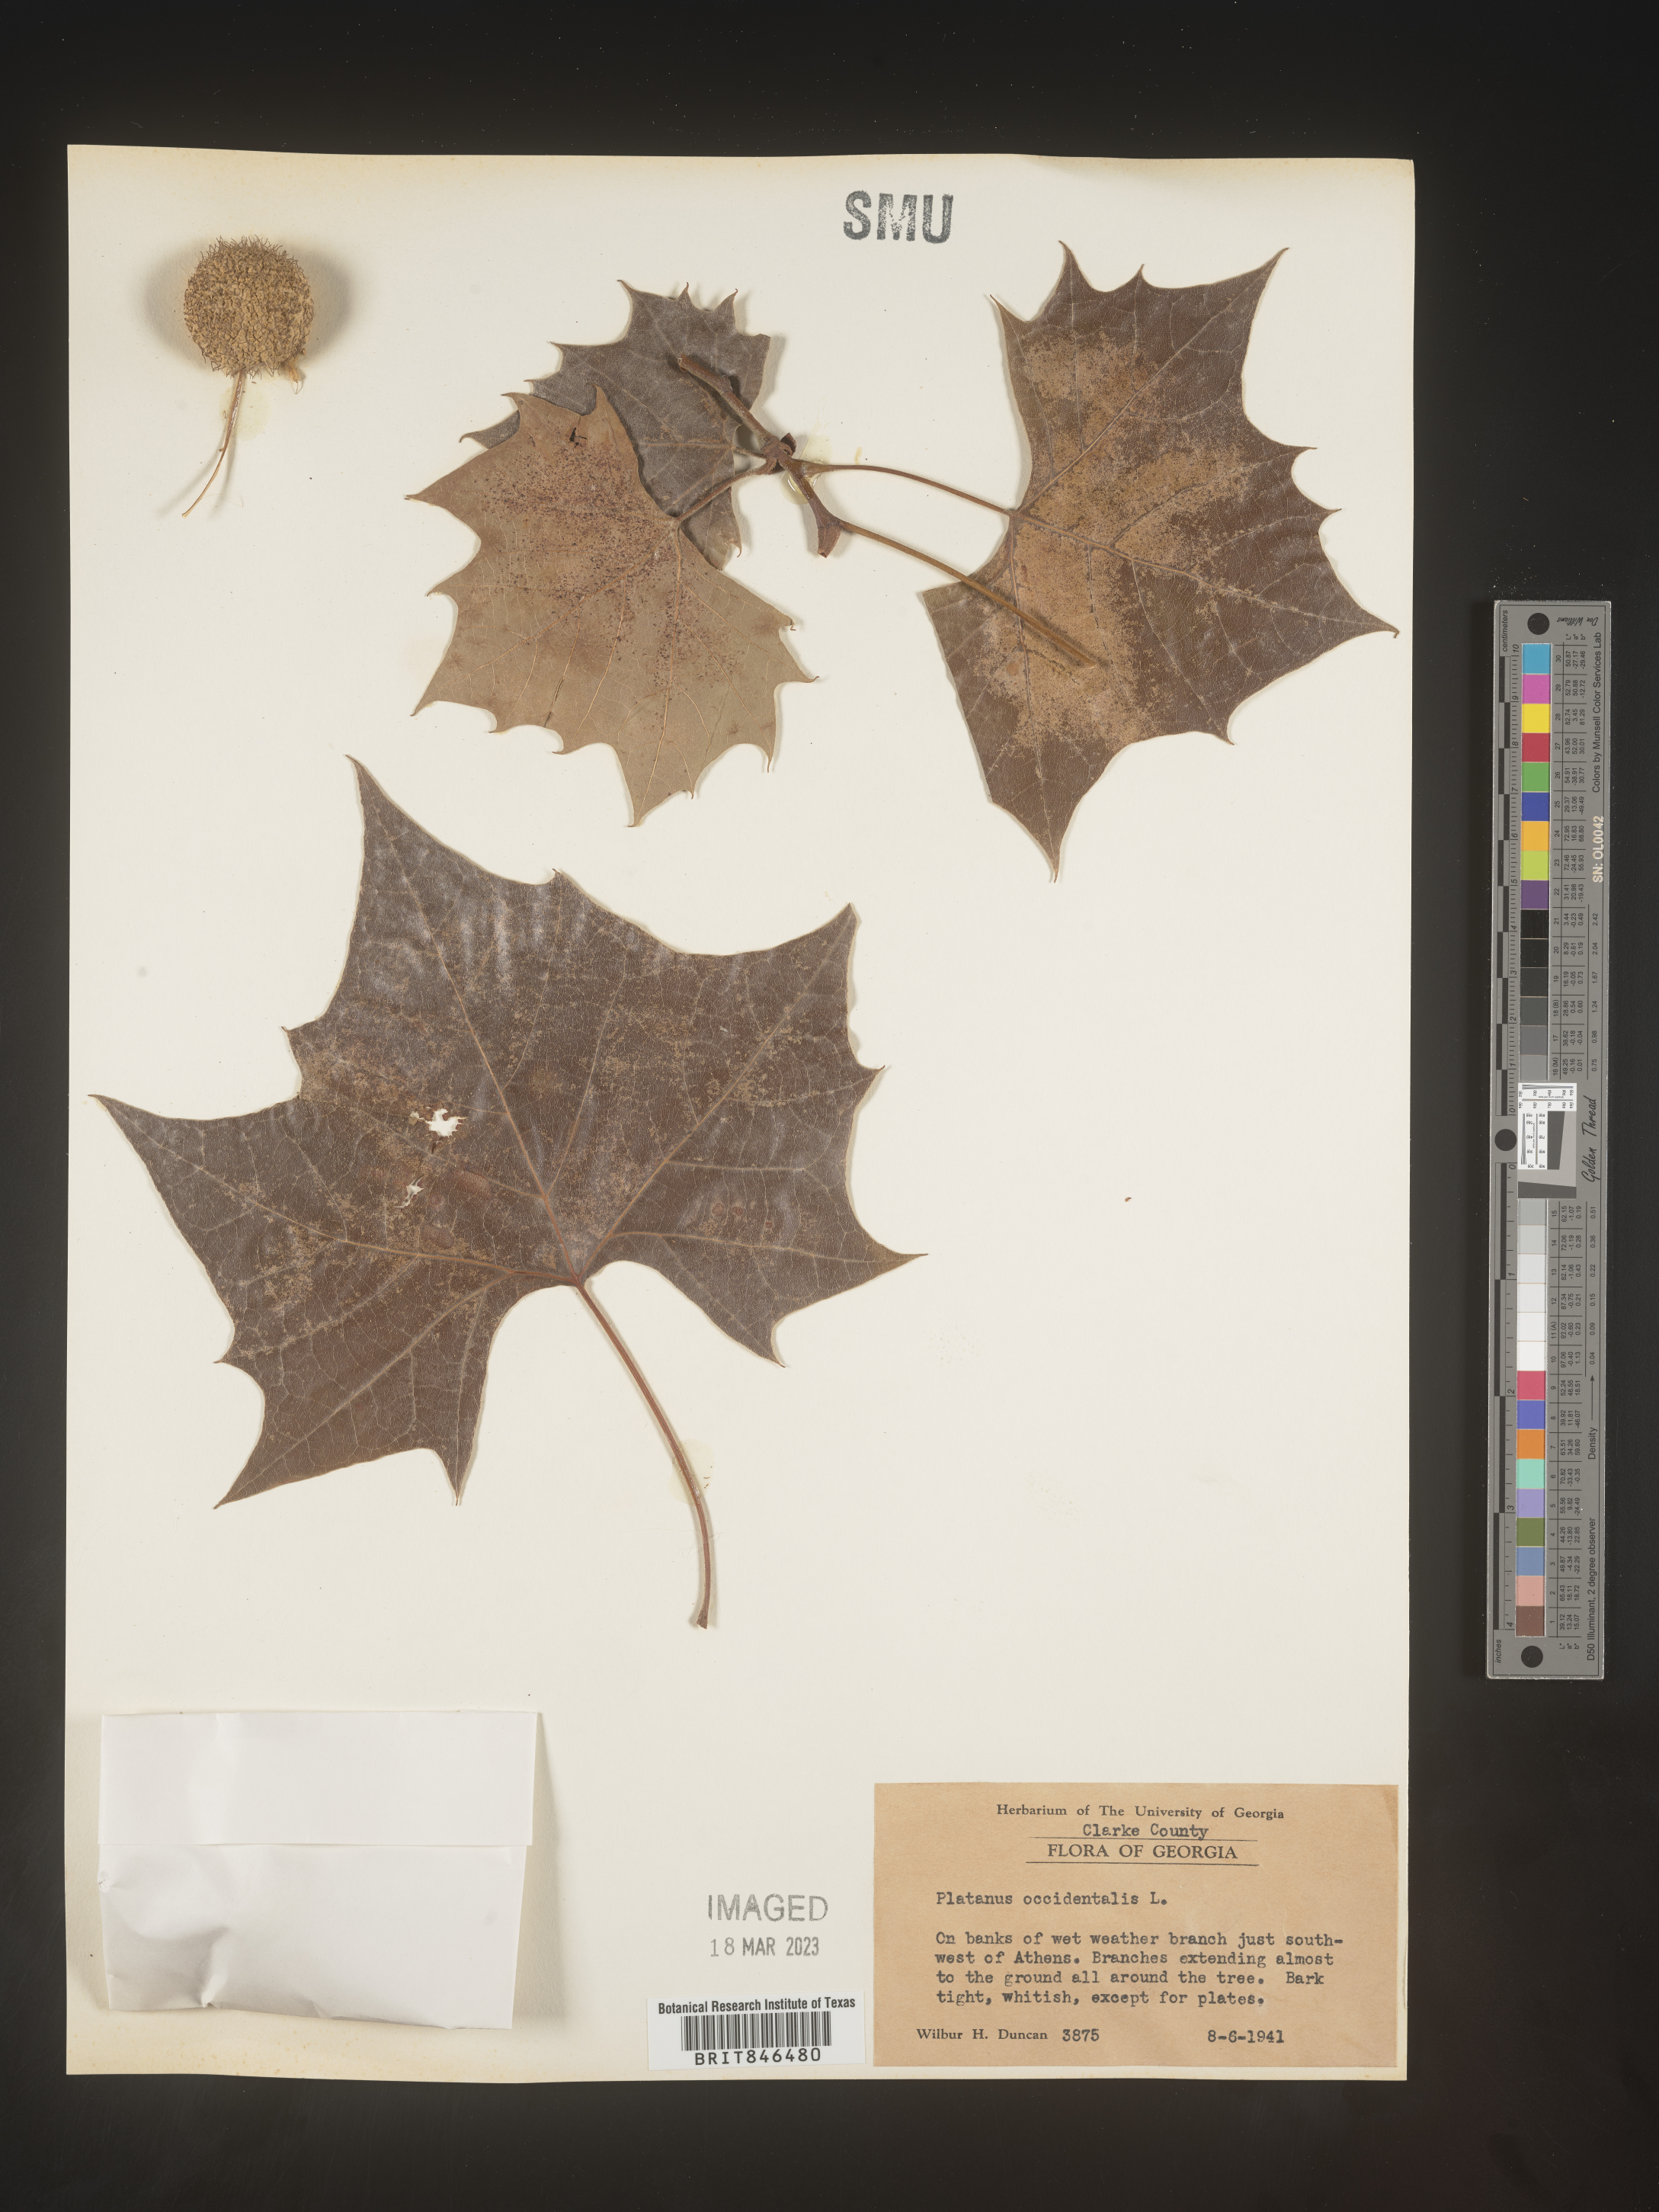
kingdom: Plantae
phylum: Tracheophyta
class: Magnoliopsida
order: Proteales
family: Platanaceae
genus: Platanus
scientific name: Platanus occidentalis
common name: American sycamore
